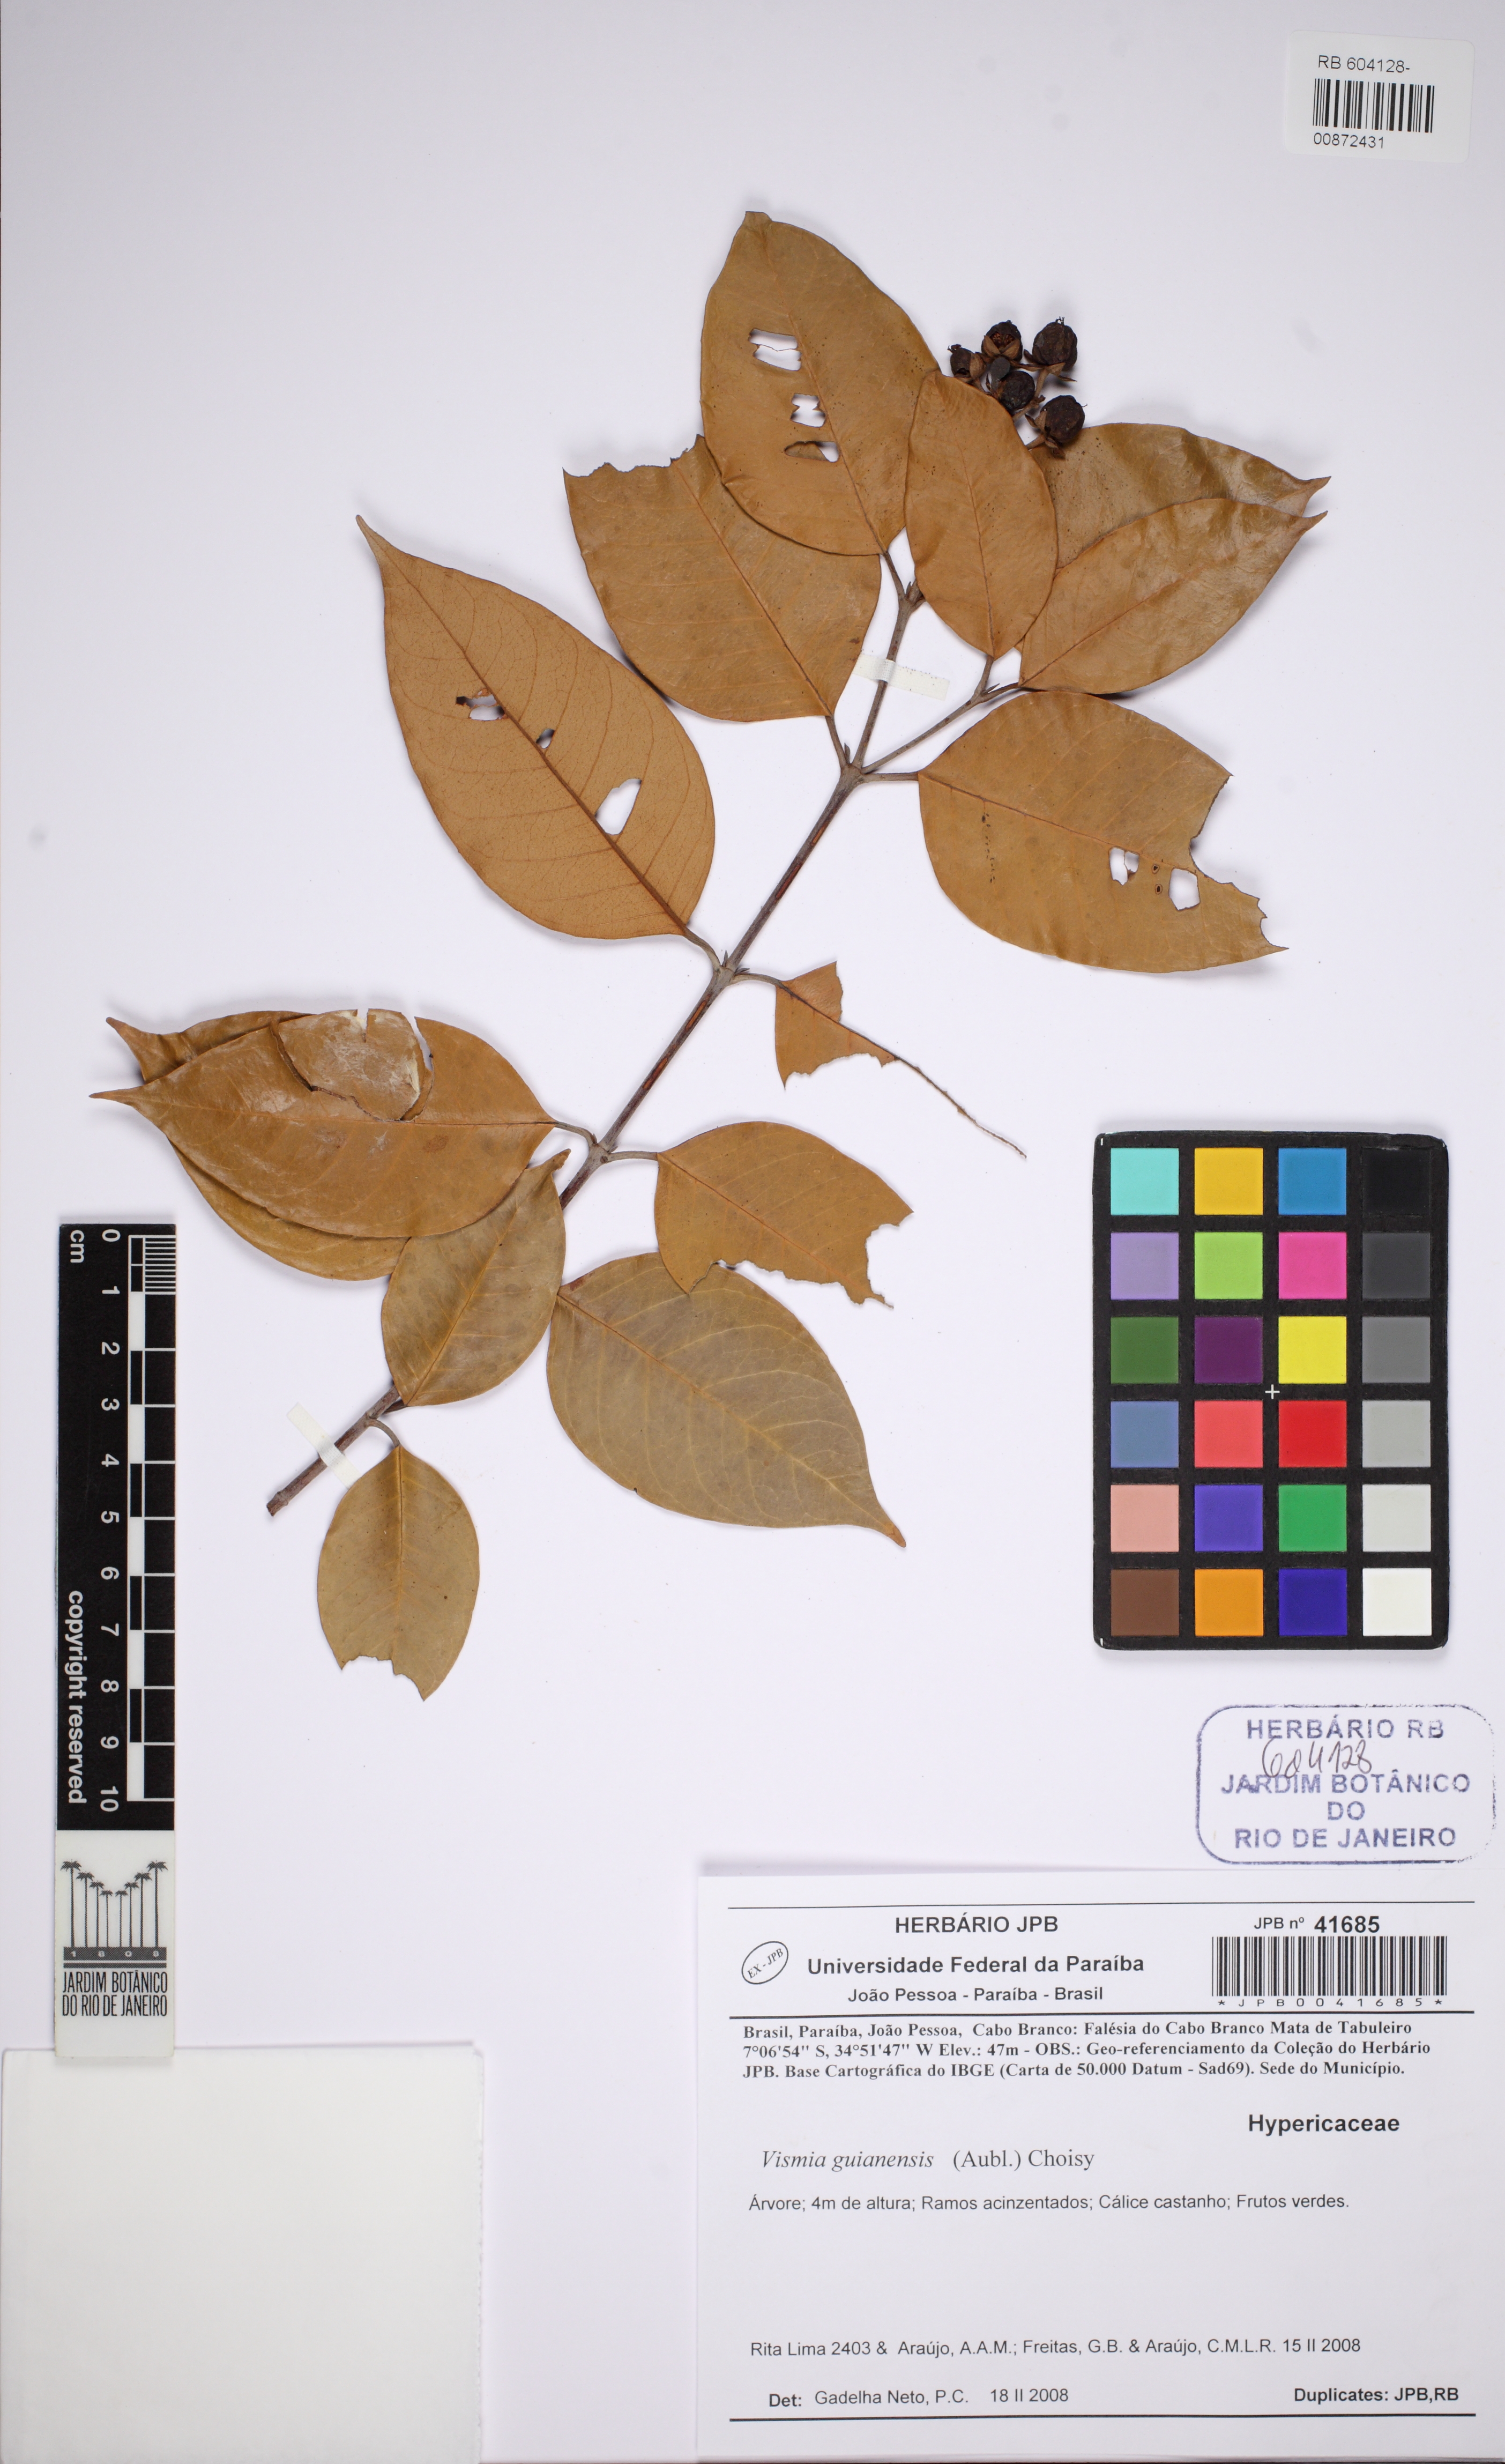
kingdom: Plantae
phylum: Tracheophyta
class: Magnoliopsida
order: Malpighiales
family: Hypericaceae
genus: Vismia
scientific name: Vismia guianensis
